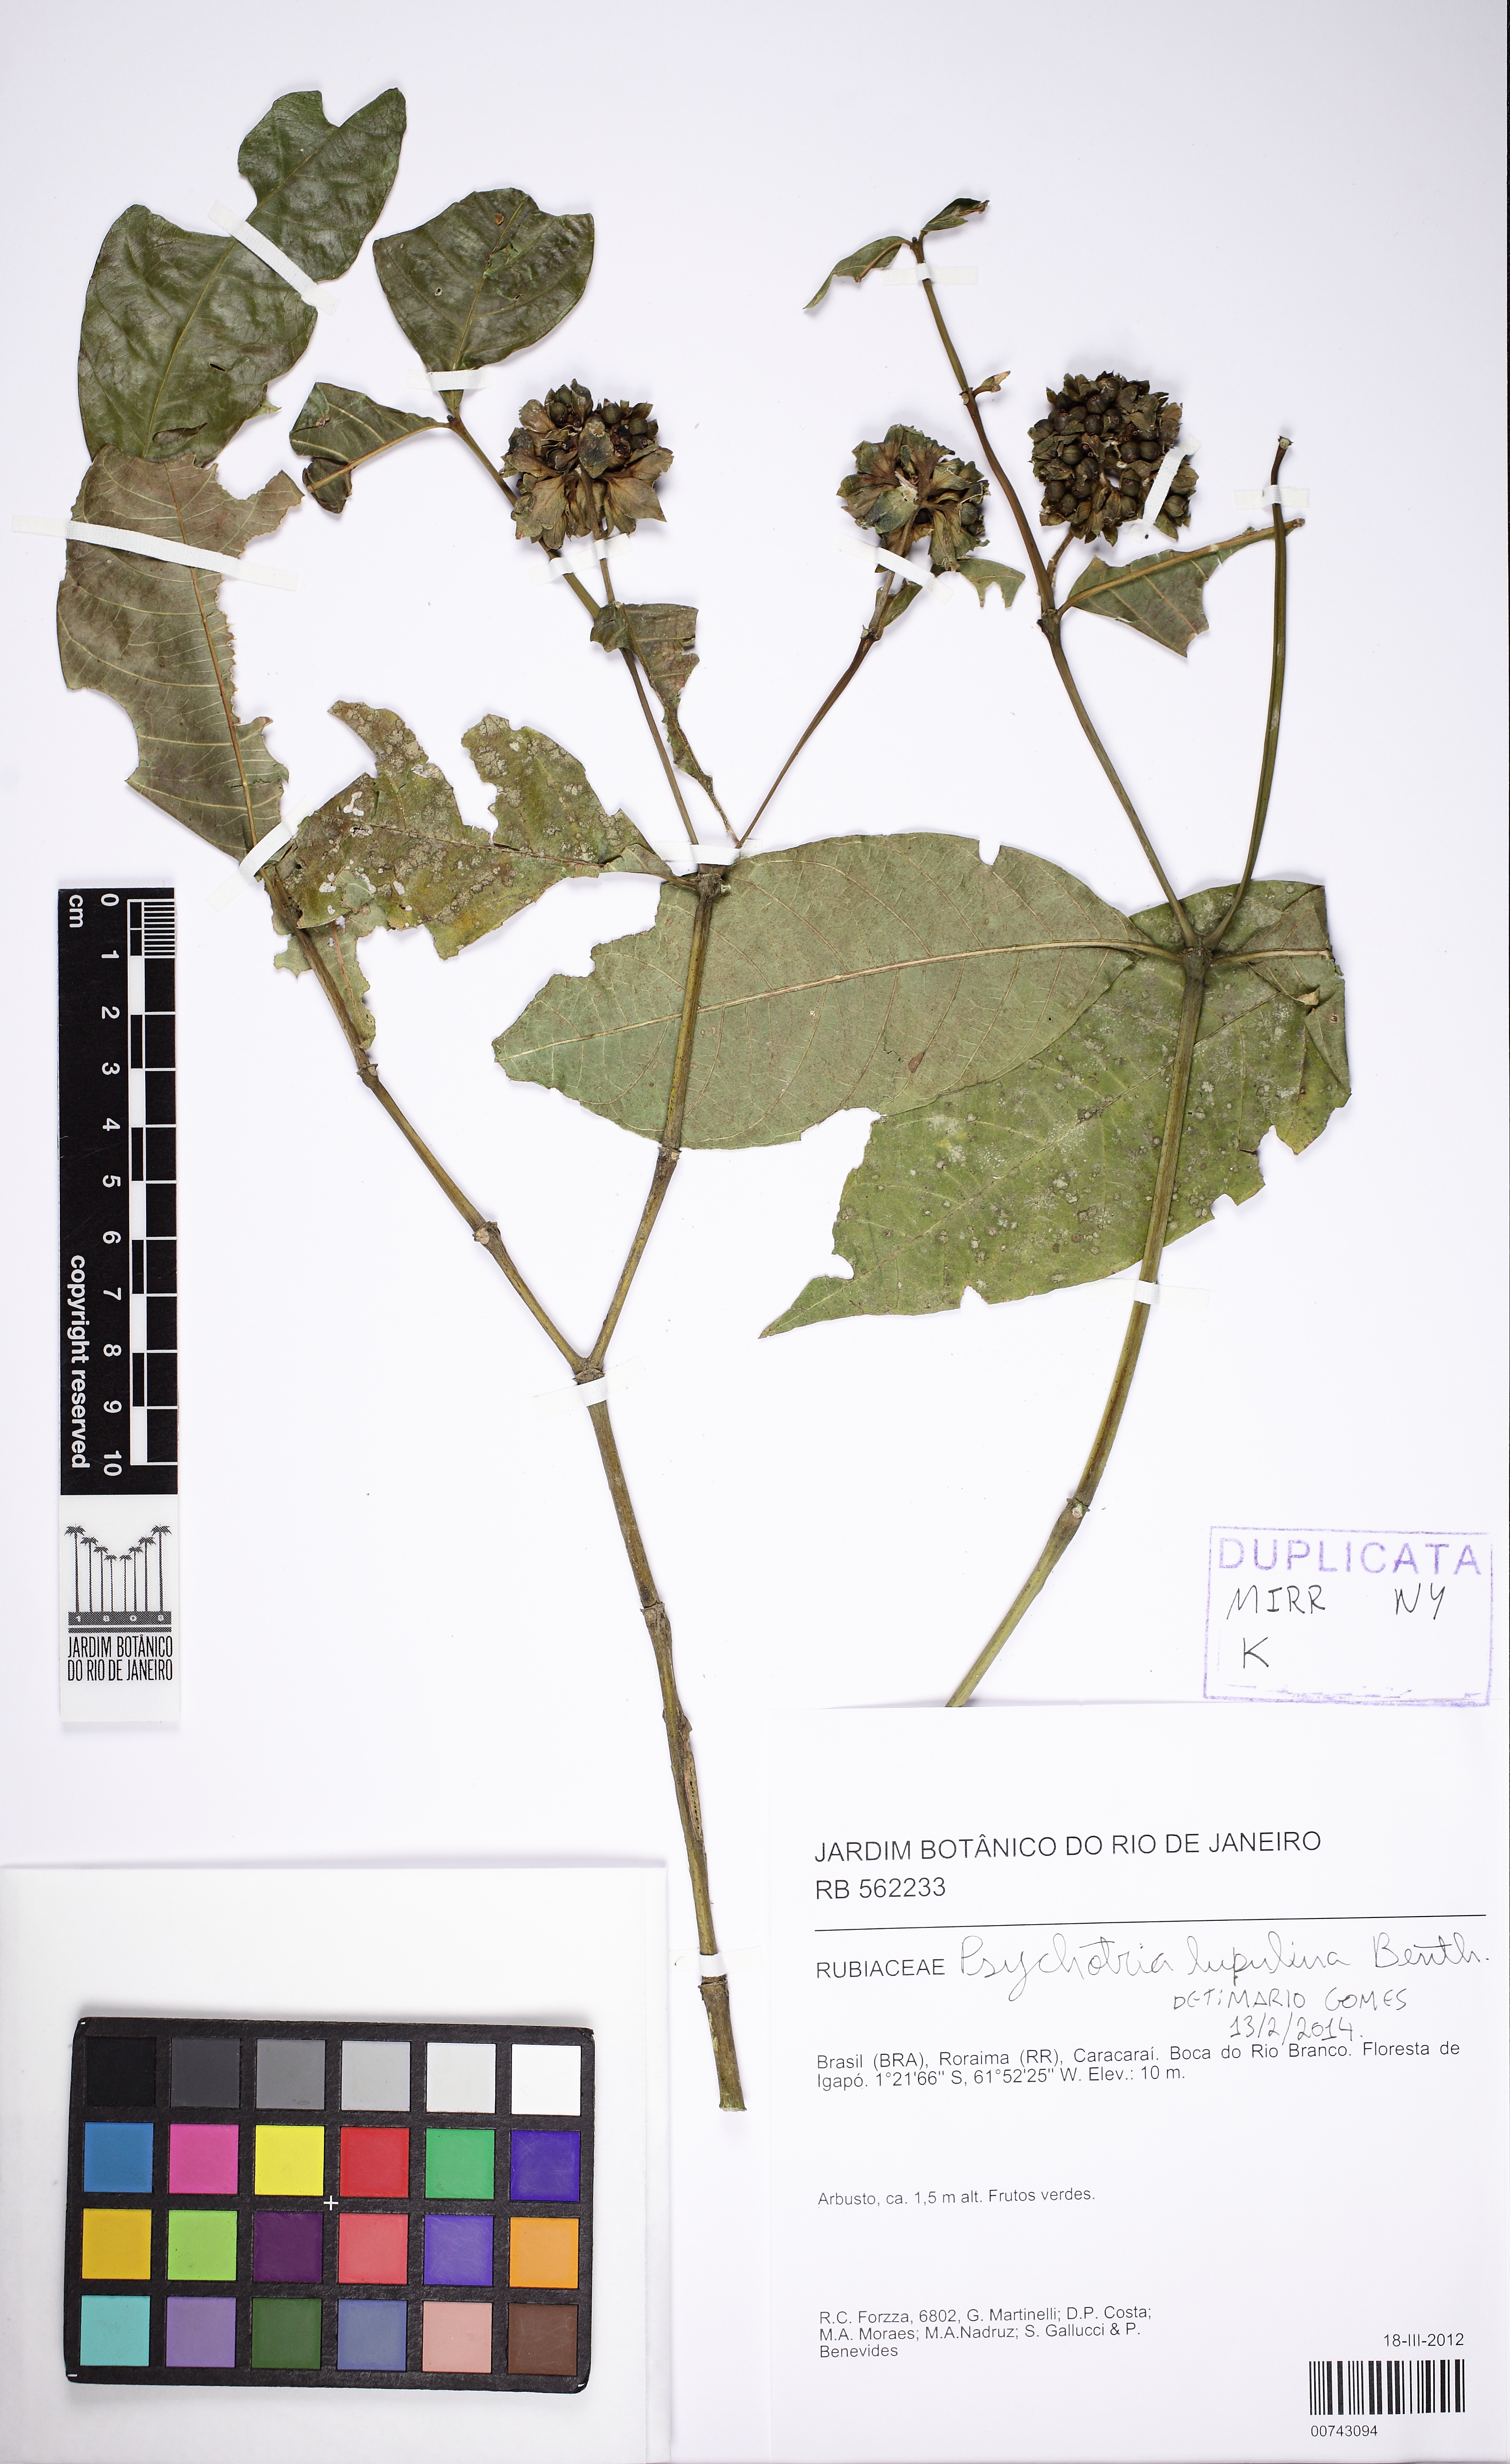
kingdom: Plantae
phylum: Tracheophyta
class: Magnoliopsida
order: Gentianales
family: Rubiaceae
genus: Palicourea
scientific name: Palicourea justiciifolia
